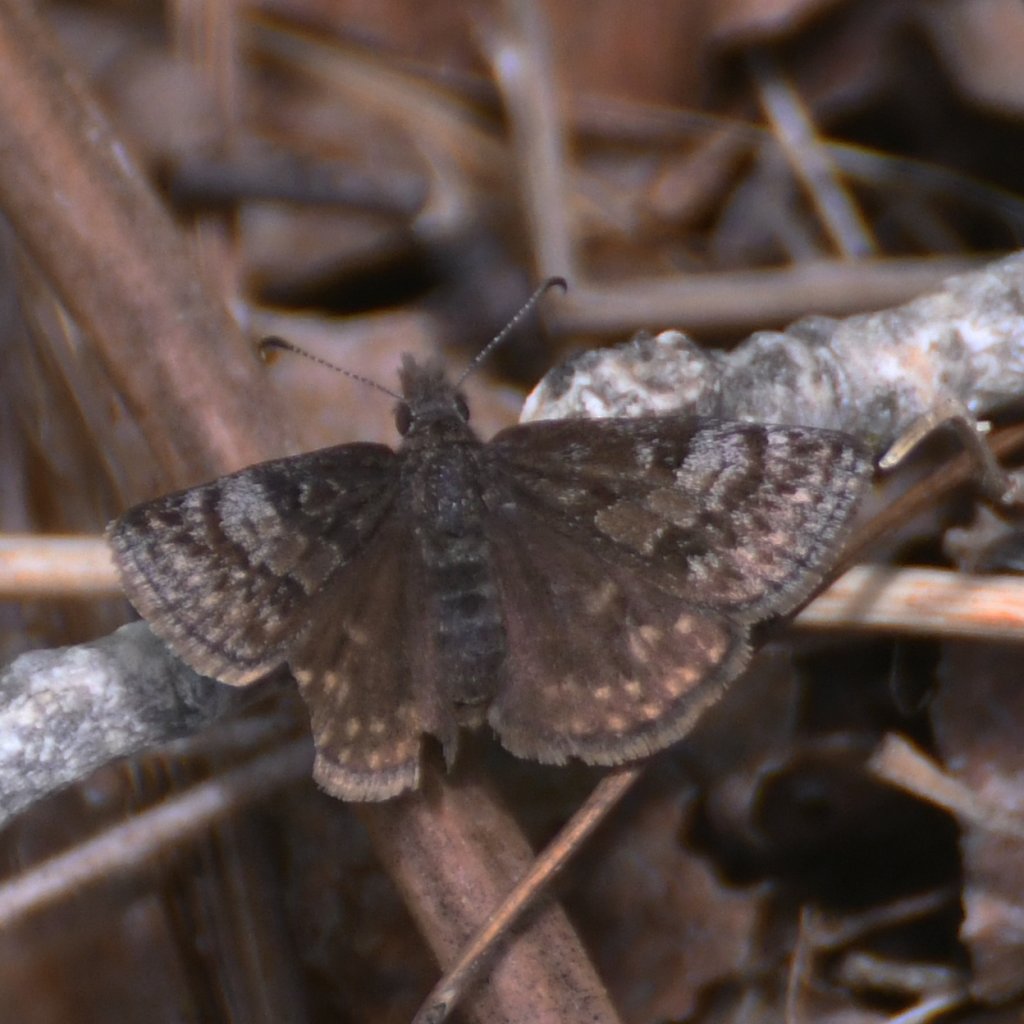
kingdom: Animalia
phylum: Arthropoda
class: Insecta
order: Lepidoptera
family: Hesperiidae
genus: Erynnis
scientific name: Erynnis icelus
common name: Dreamy Duskywing
